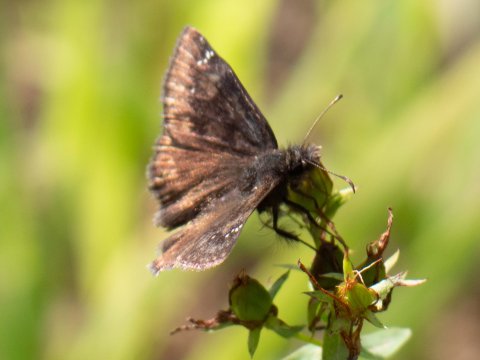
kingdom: Animalia
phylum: Arthropoda
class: Insecta
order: Lepidoptera
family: Hesperiidae
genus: Gesta
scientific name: Gesta
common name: Wild Indigo Duskywing
